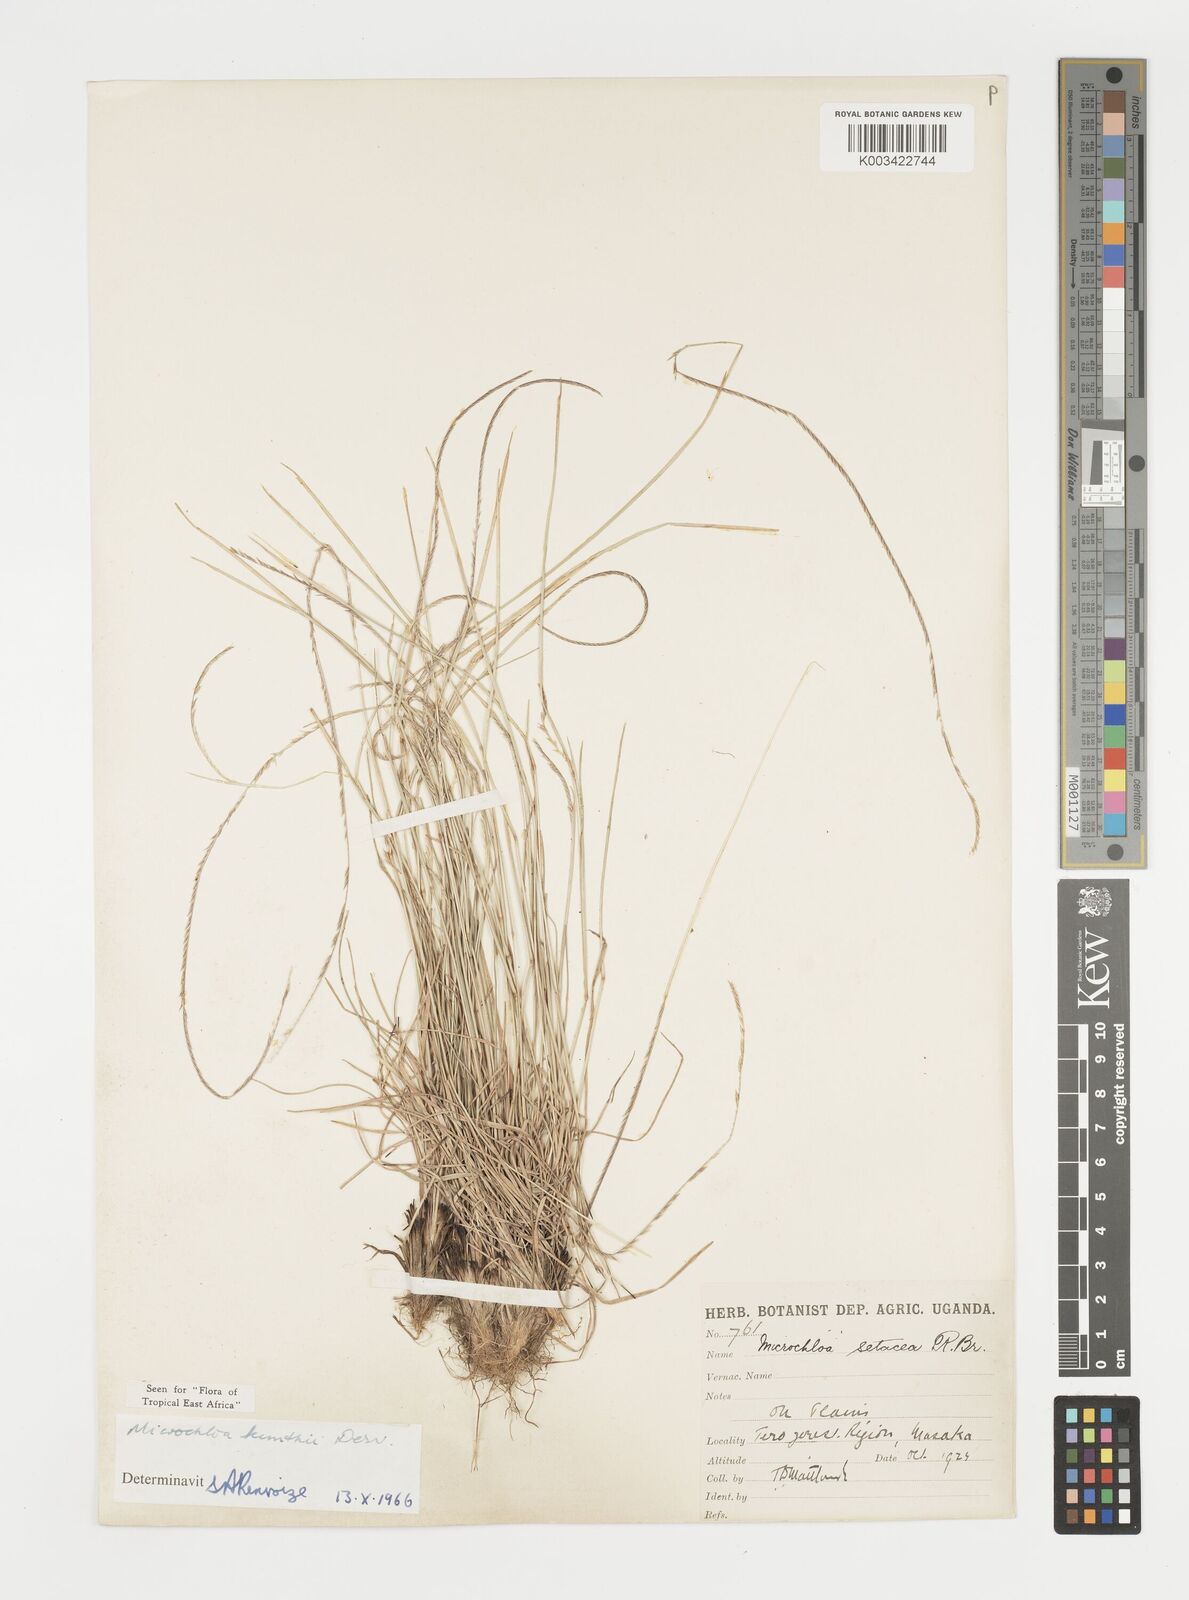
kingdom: Plantae
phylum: Tracheophyta
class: Liliopsida
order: Poales
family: Poaceae
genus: Microchloa
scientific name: Microchloa kunthii
